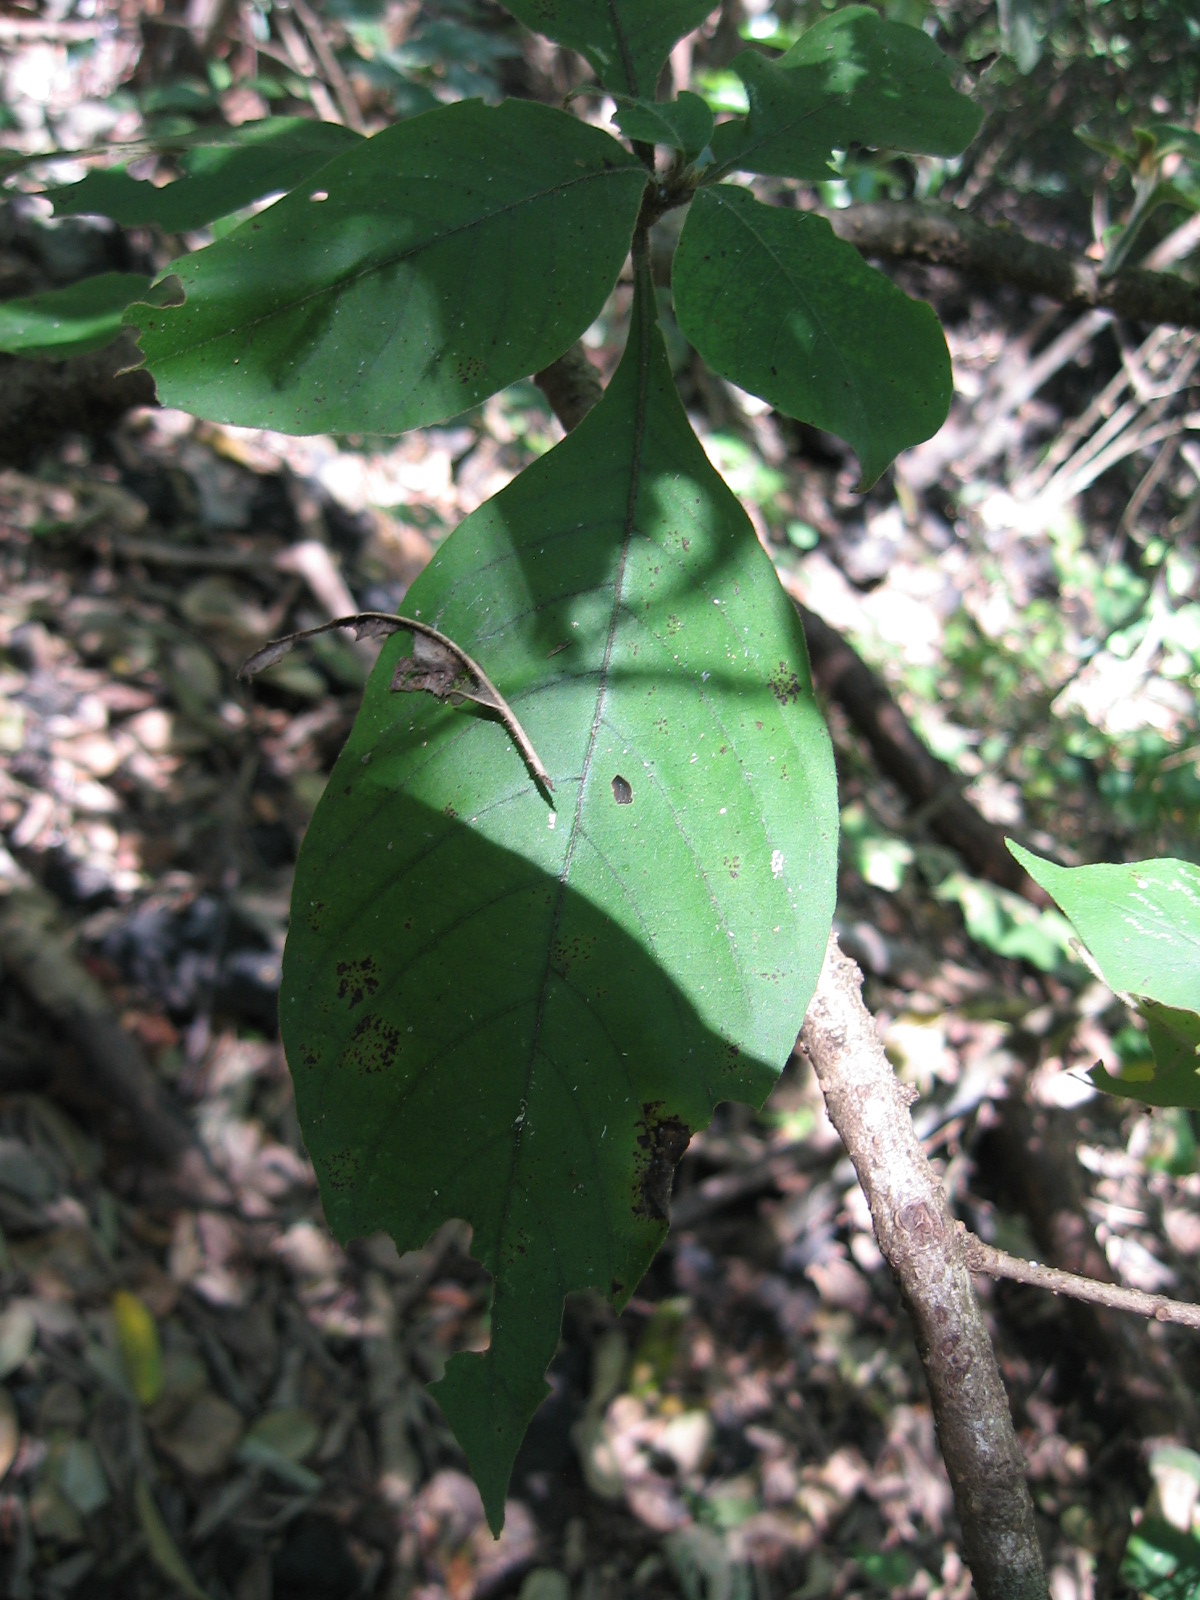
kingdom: Plantae
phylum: Tracheophyta
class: Magnoliopsida
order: Lamiales
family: Acanthaceae
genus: Aphelandra
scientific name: Aphelandra scabra
